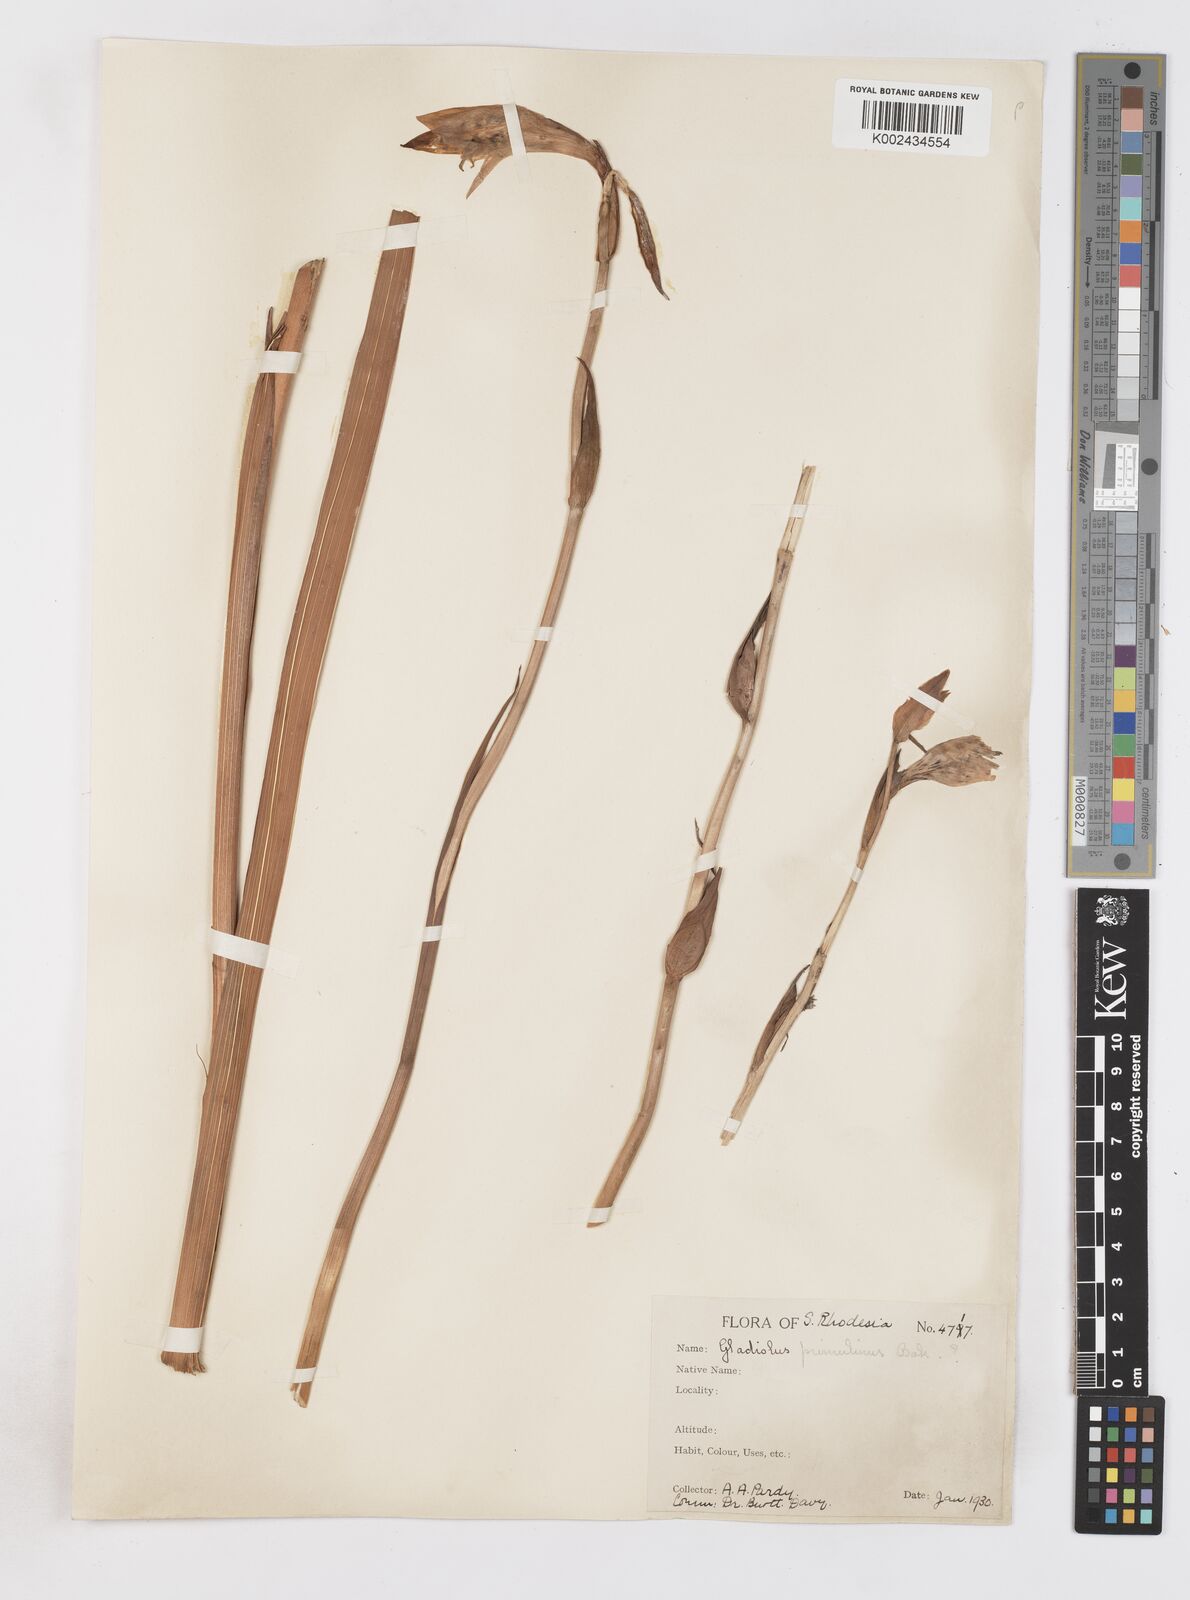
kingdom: Plantae
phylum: Tracheophyta
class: Liliopsida
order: Asparagales
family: Iridaceae
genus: Gladiolus
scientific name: Gladiolus dalenii
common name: Cornflag
